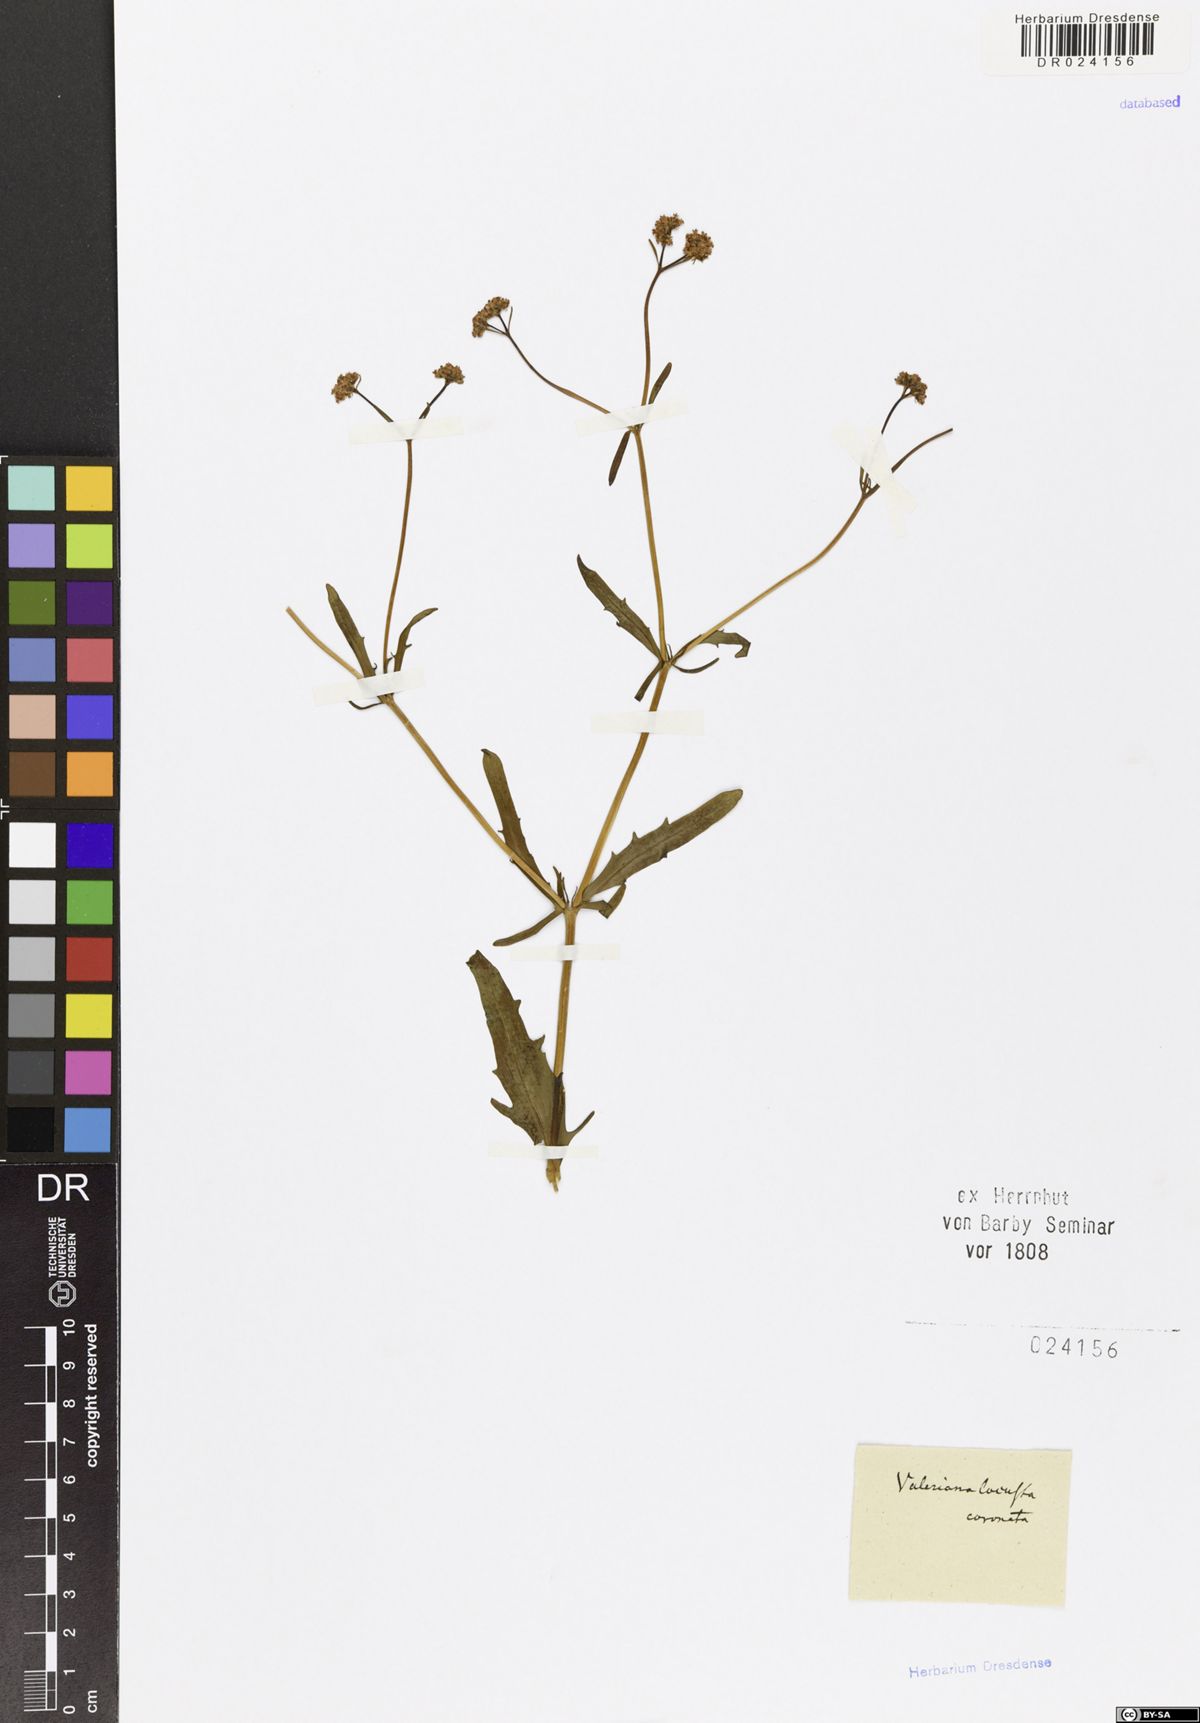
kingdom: Plantae
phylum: Tracheophyta
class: Magnoliopsida
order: Dipsacales
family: Caprifoliaceae
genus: Valerianella
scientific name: Valerianella coronata
